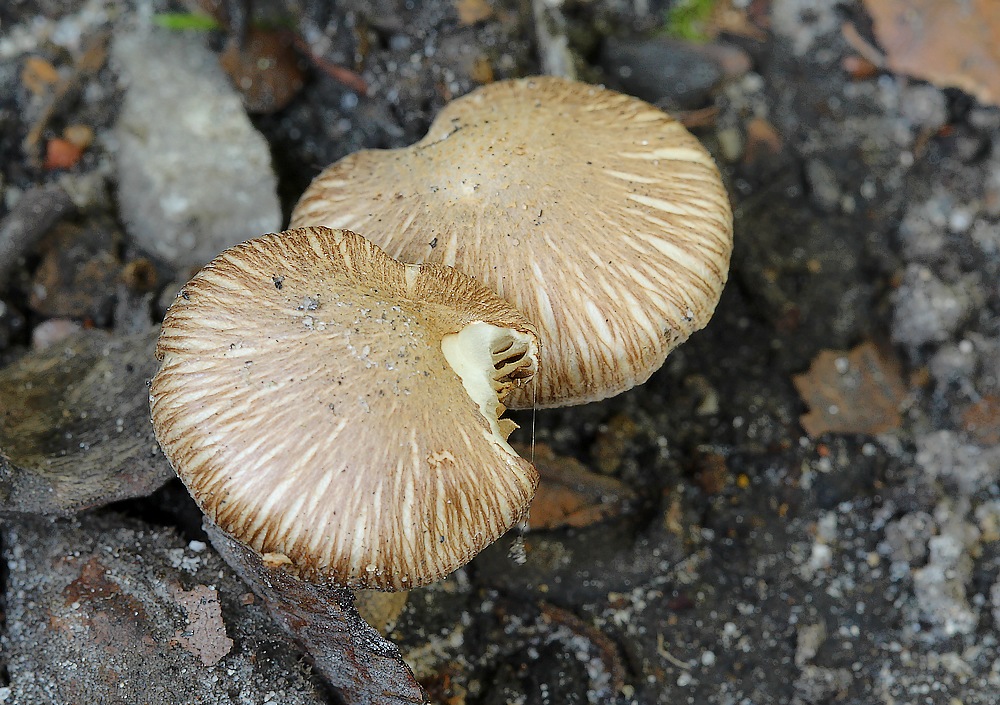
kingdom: Fungi
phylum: Basidiomycota
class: Agaricomycetes
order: Agaricales
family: Inocybaceae
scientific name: Inocybaceae
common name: trævlhatfamilien
